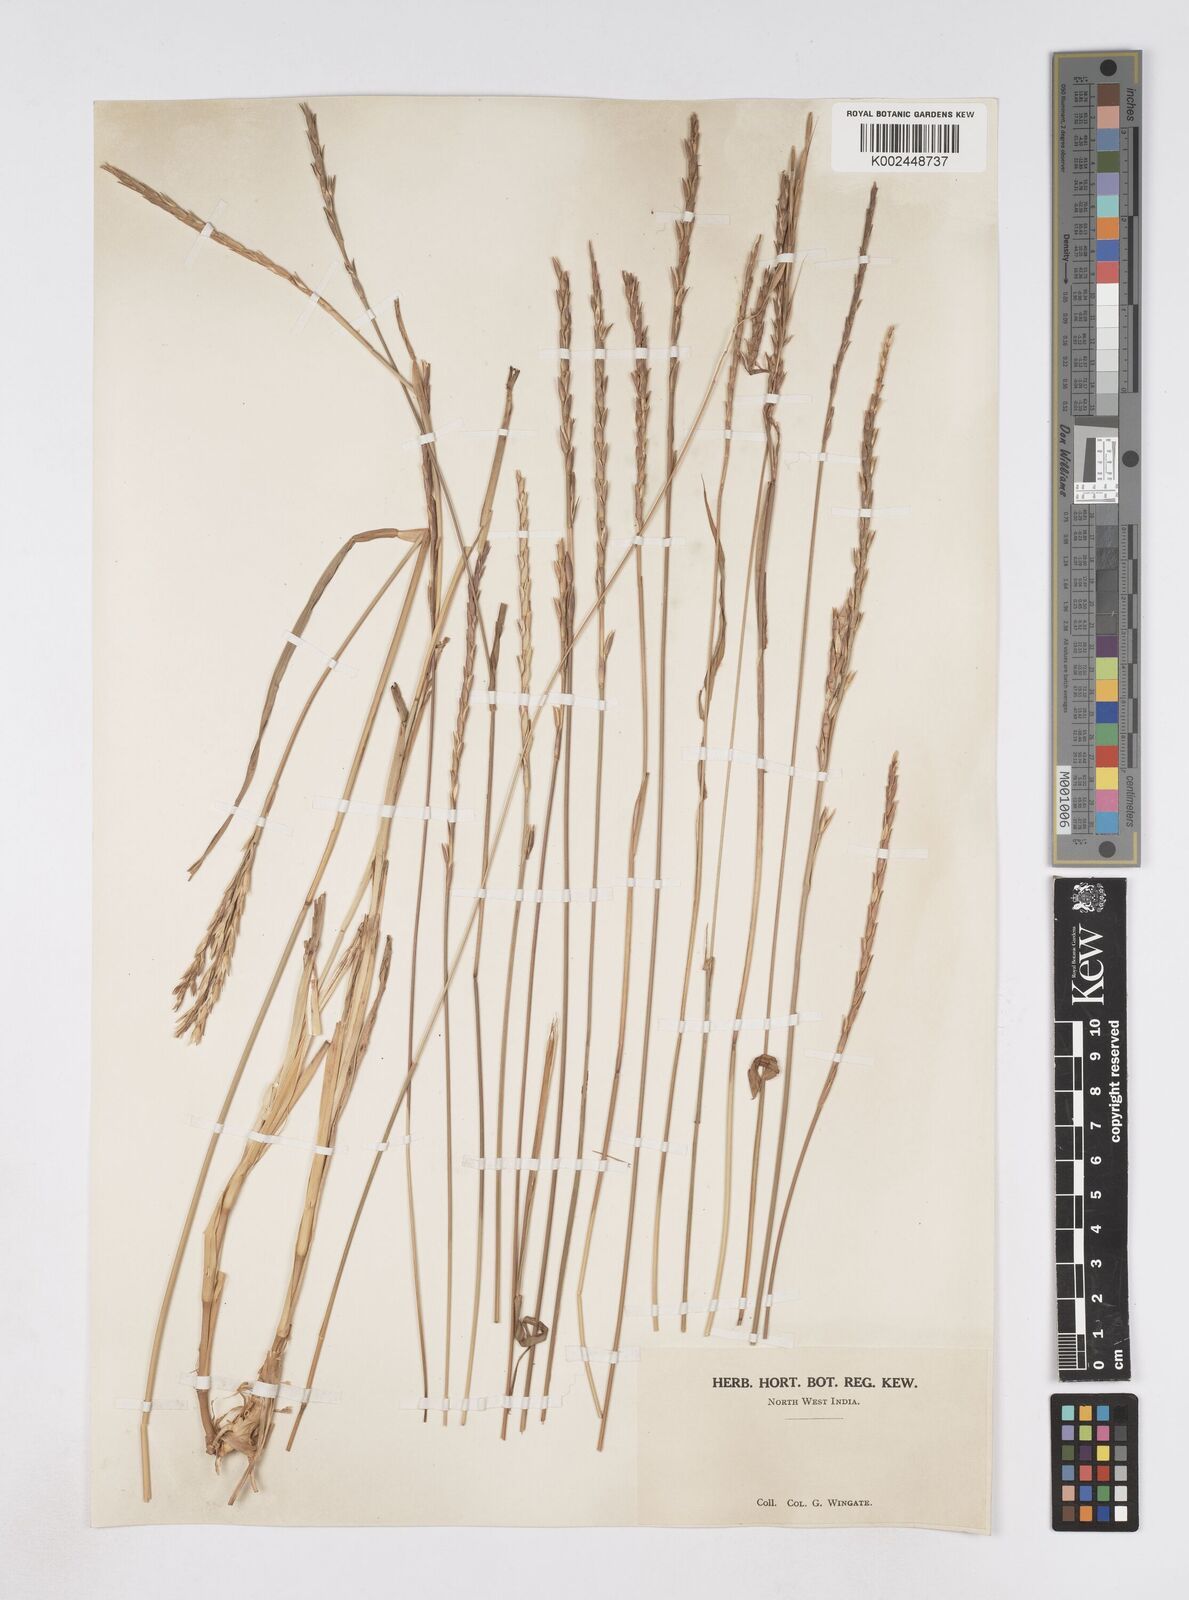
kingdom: Plantae
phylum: Tracheophyta
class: Liliopsida
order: Poales
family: Poaceae
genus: Phacelurus
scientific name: Phacelurus speciosus
